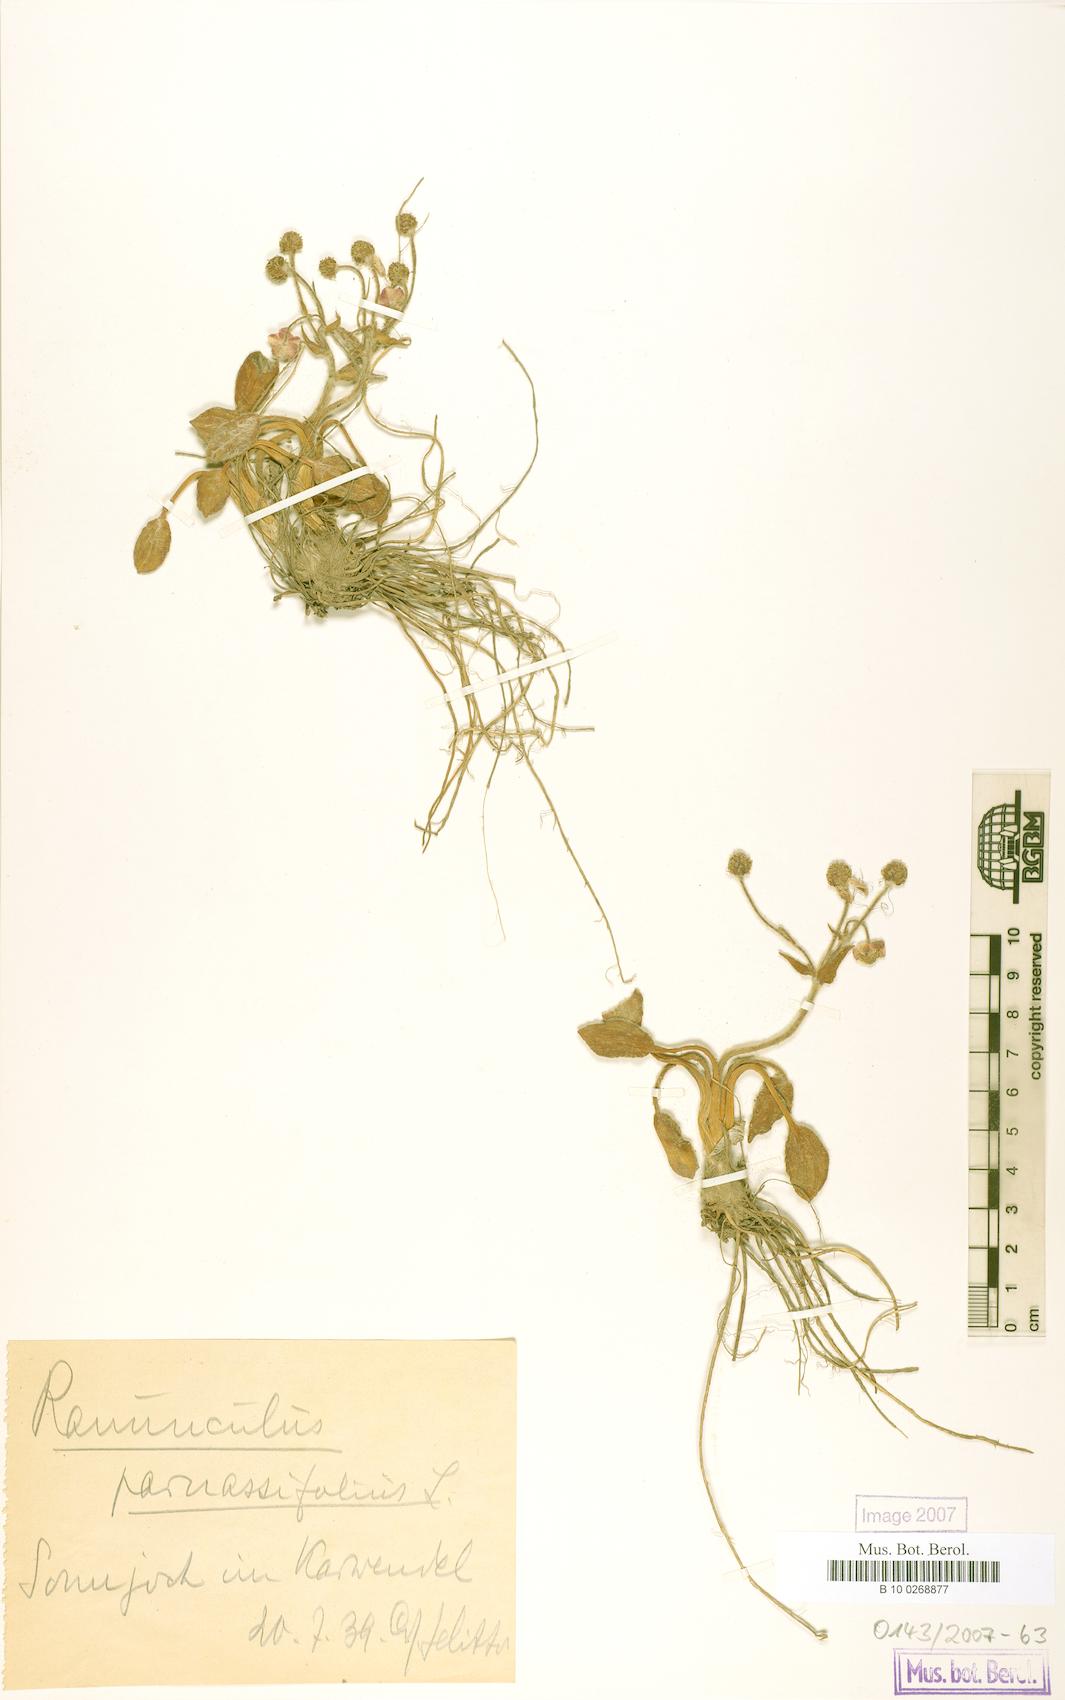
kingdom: Plantae
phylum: Tracheophyta
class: Magnoliopsida
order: Ranunculales
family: Ranunculaceae
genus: Ranunculus
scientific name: Ranunculus parnassiifolius
